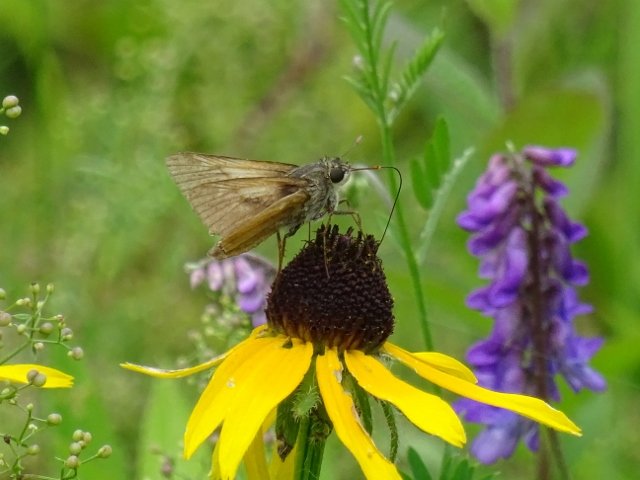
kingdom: Animalia
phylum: Arthropoda
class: Insecta
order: Lepidoptera
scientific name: Lepidoptera
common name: Butterflies
